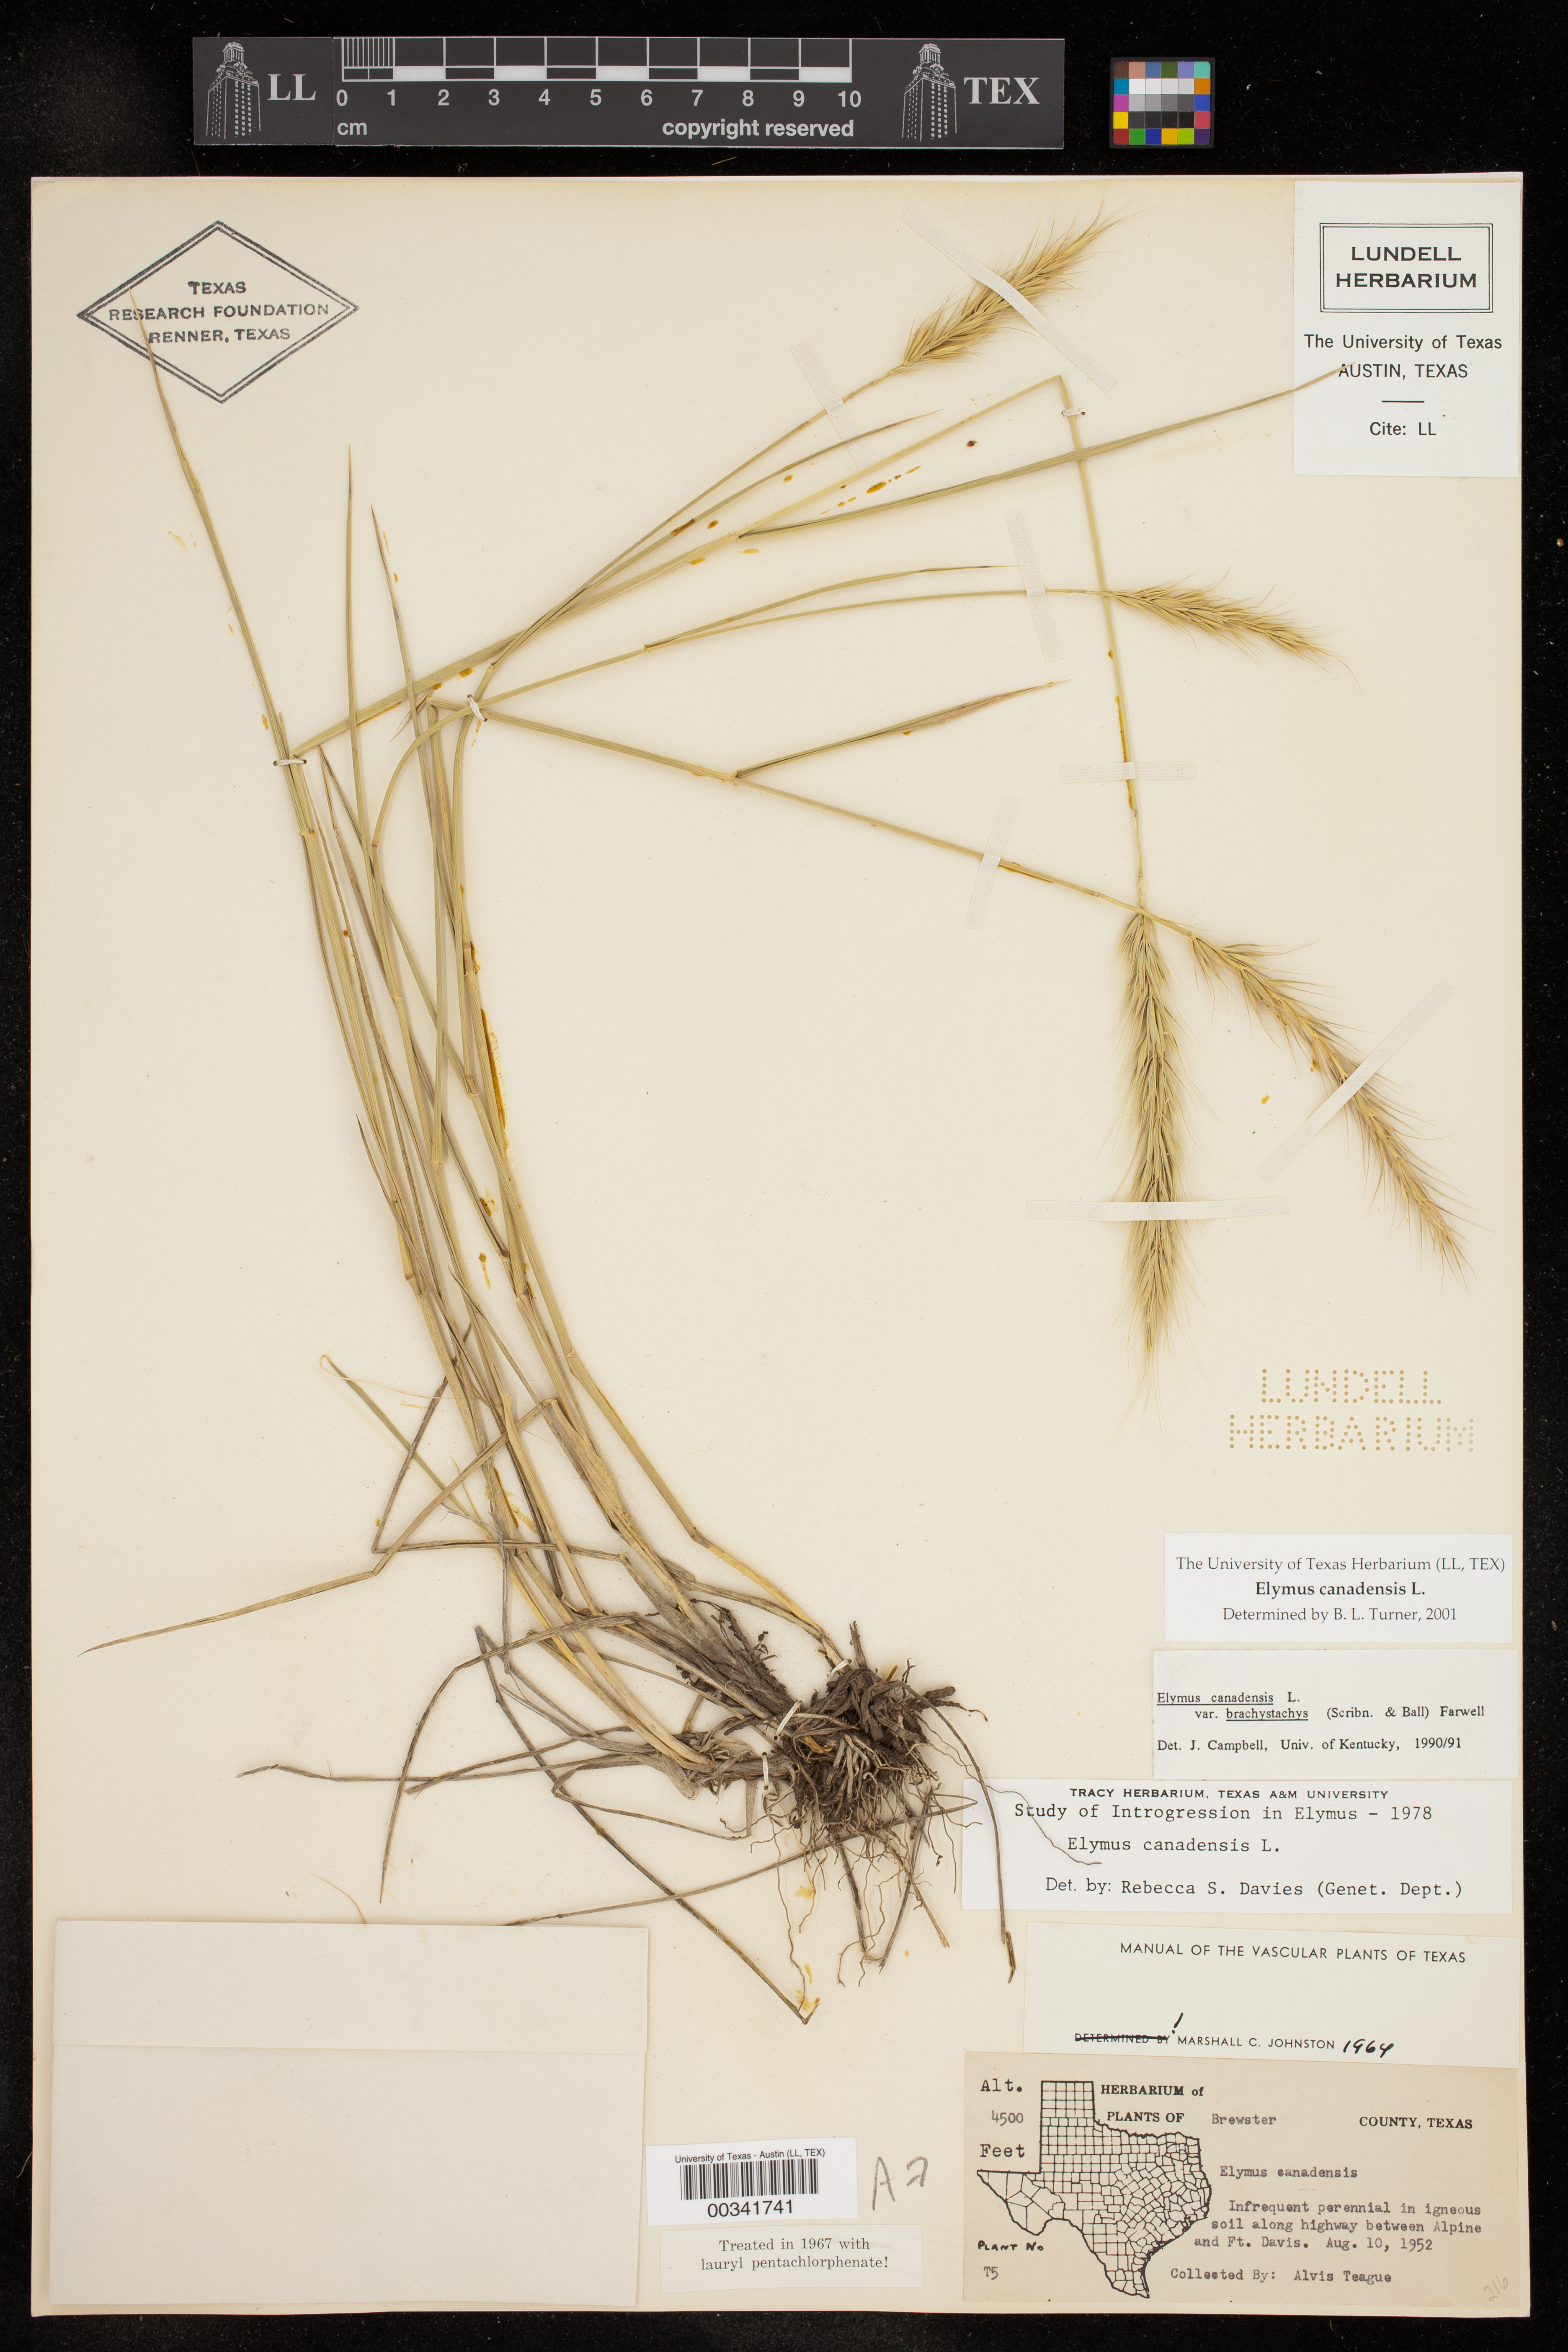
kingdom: Plantae
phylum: Tracheophyta
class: Liliopsida
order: Poales
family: Poaceae
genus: Elymus
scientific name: Elymus canadensis
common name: Canada wild rye
